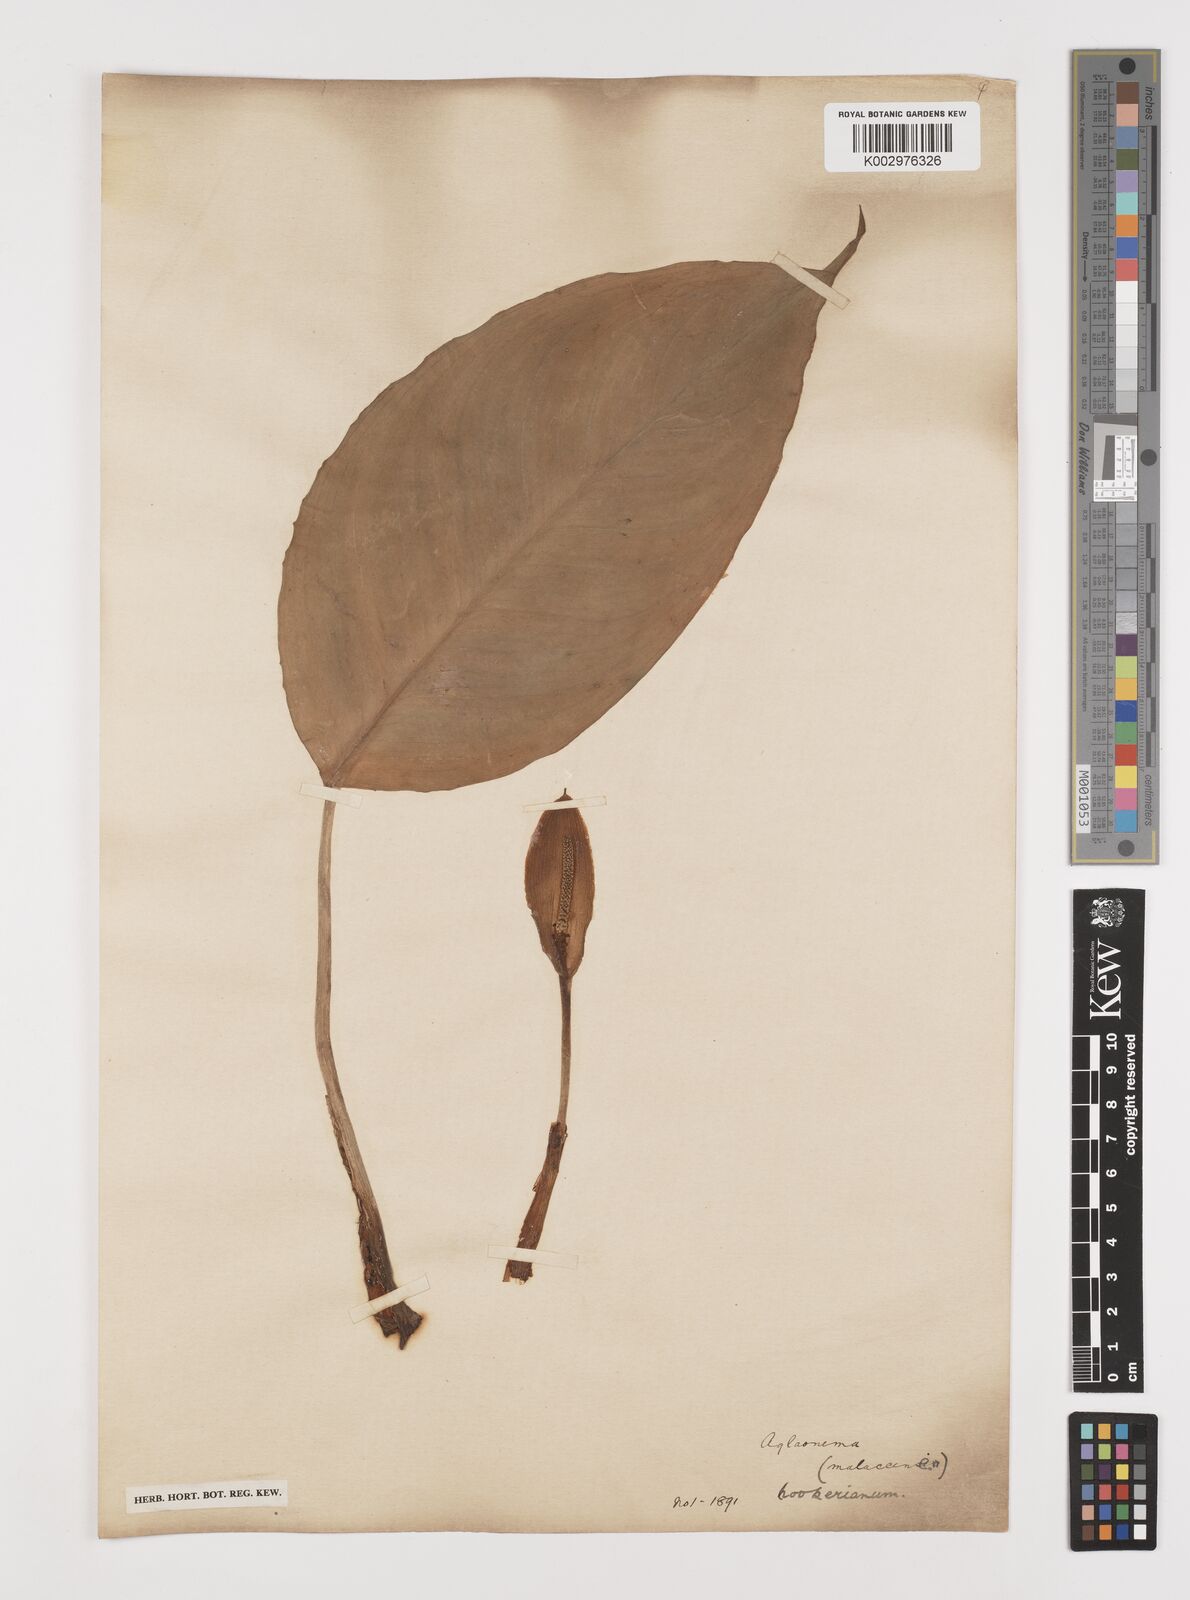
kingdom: Plantae
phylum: Tracheophyta
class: Liliopsida
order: Alismatales
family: Araceae
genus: Aglaonema
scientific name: Aglaonema hookerianum
